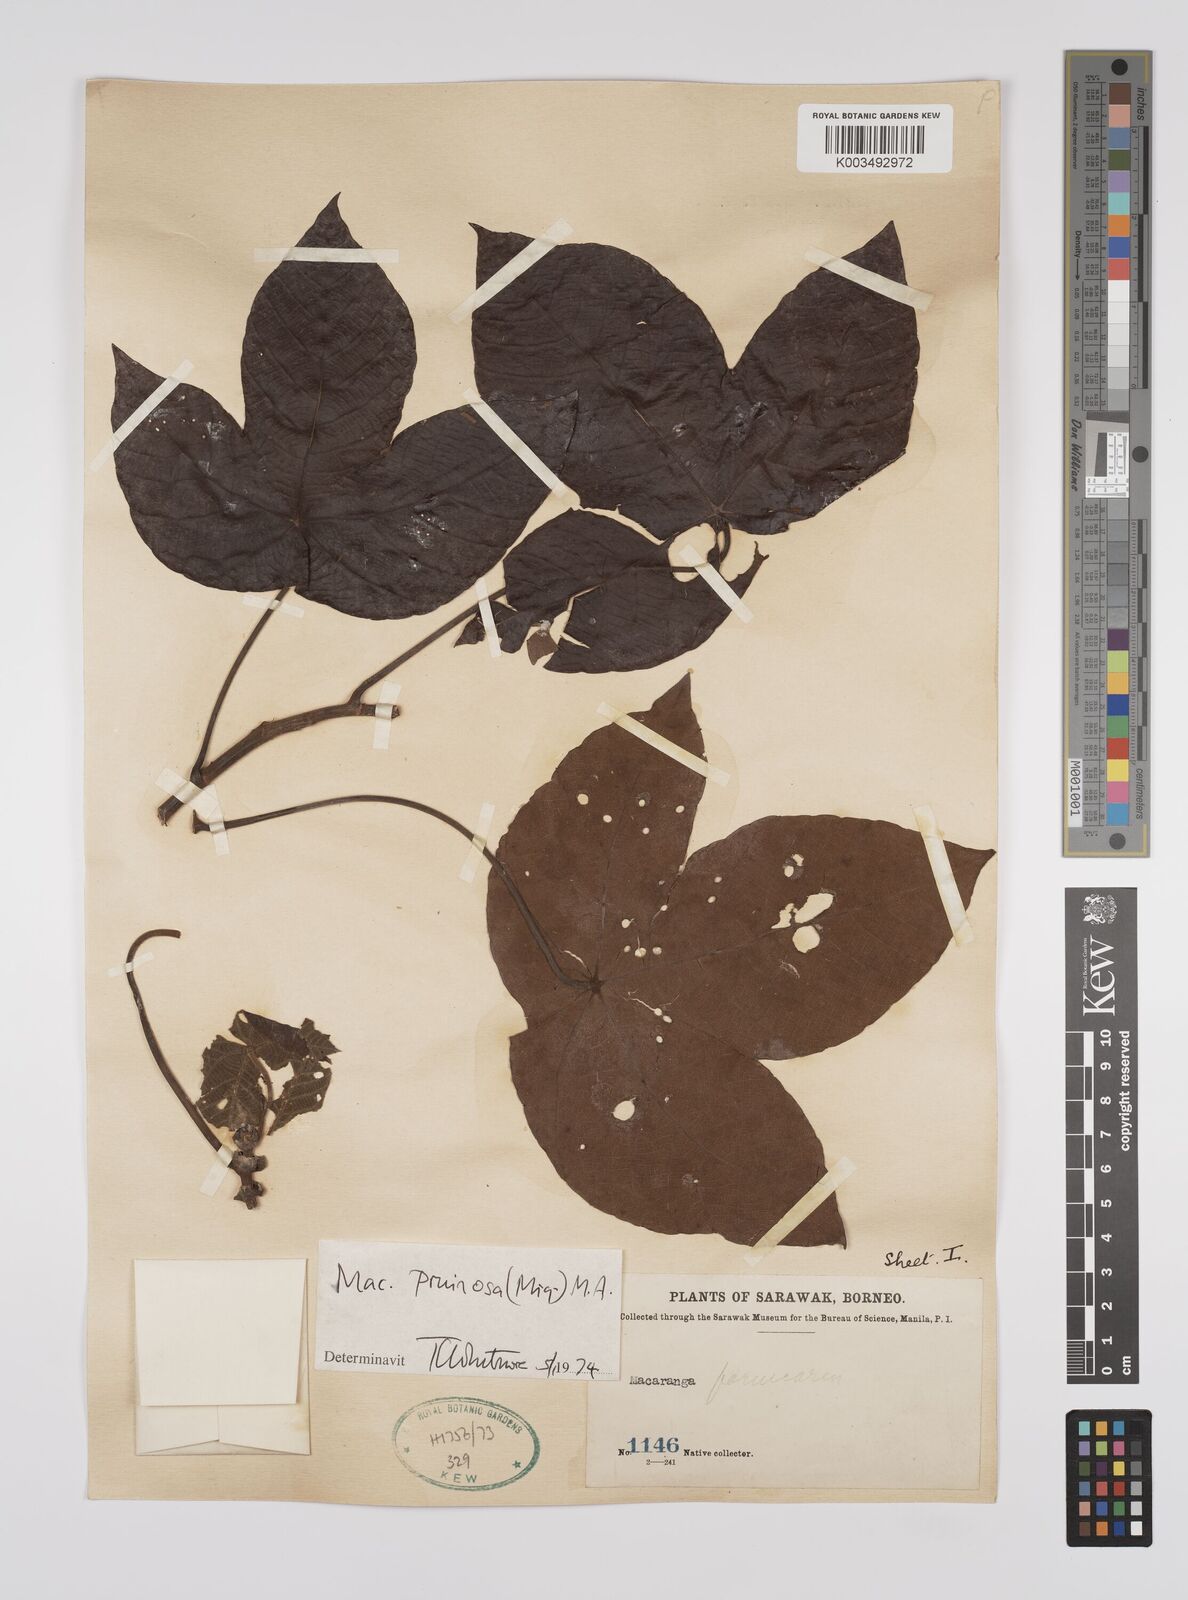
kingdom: Plantae
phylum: Tracheophyta
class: Magnoliopsida
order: Malpighiales
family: Euphorbiaceae
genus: Macaranga
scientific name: Macaranga pruinosa
